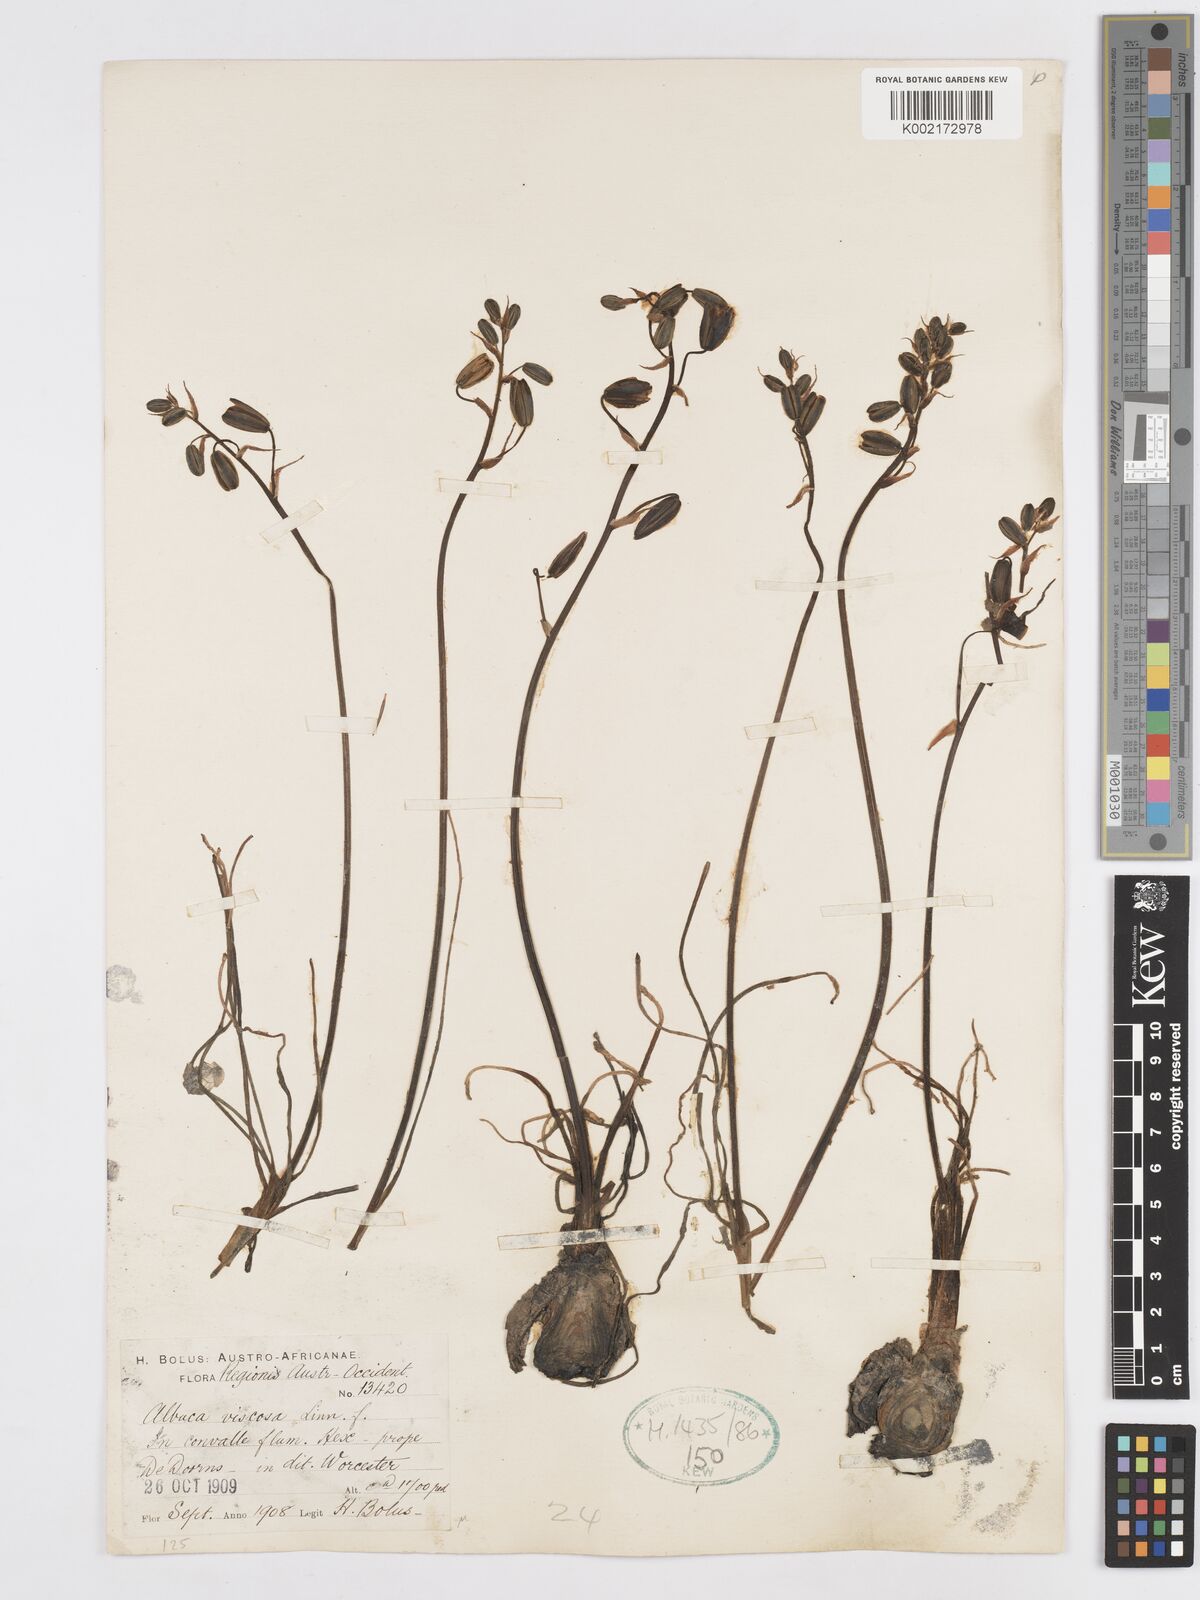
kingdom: Plantae
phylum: Tracheophyta
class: Liliopsida
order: Asparagales
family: Asparagaceae
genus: Albuca
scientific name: Albuca viscosa
